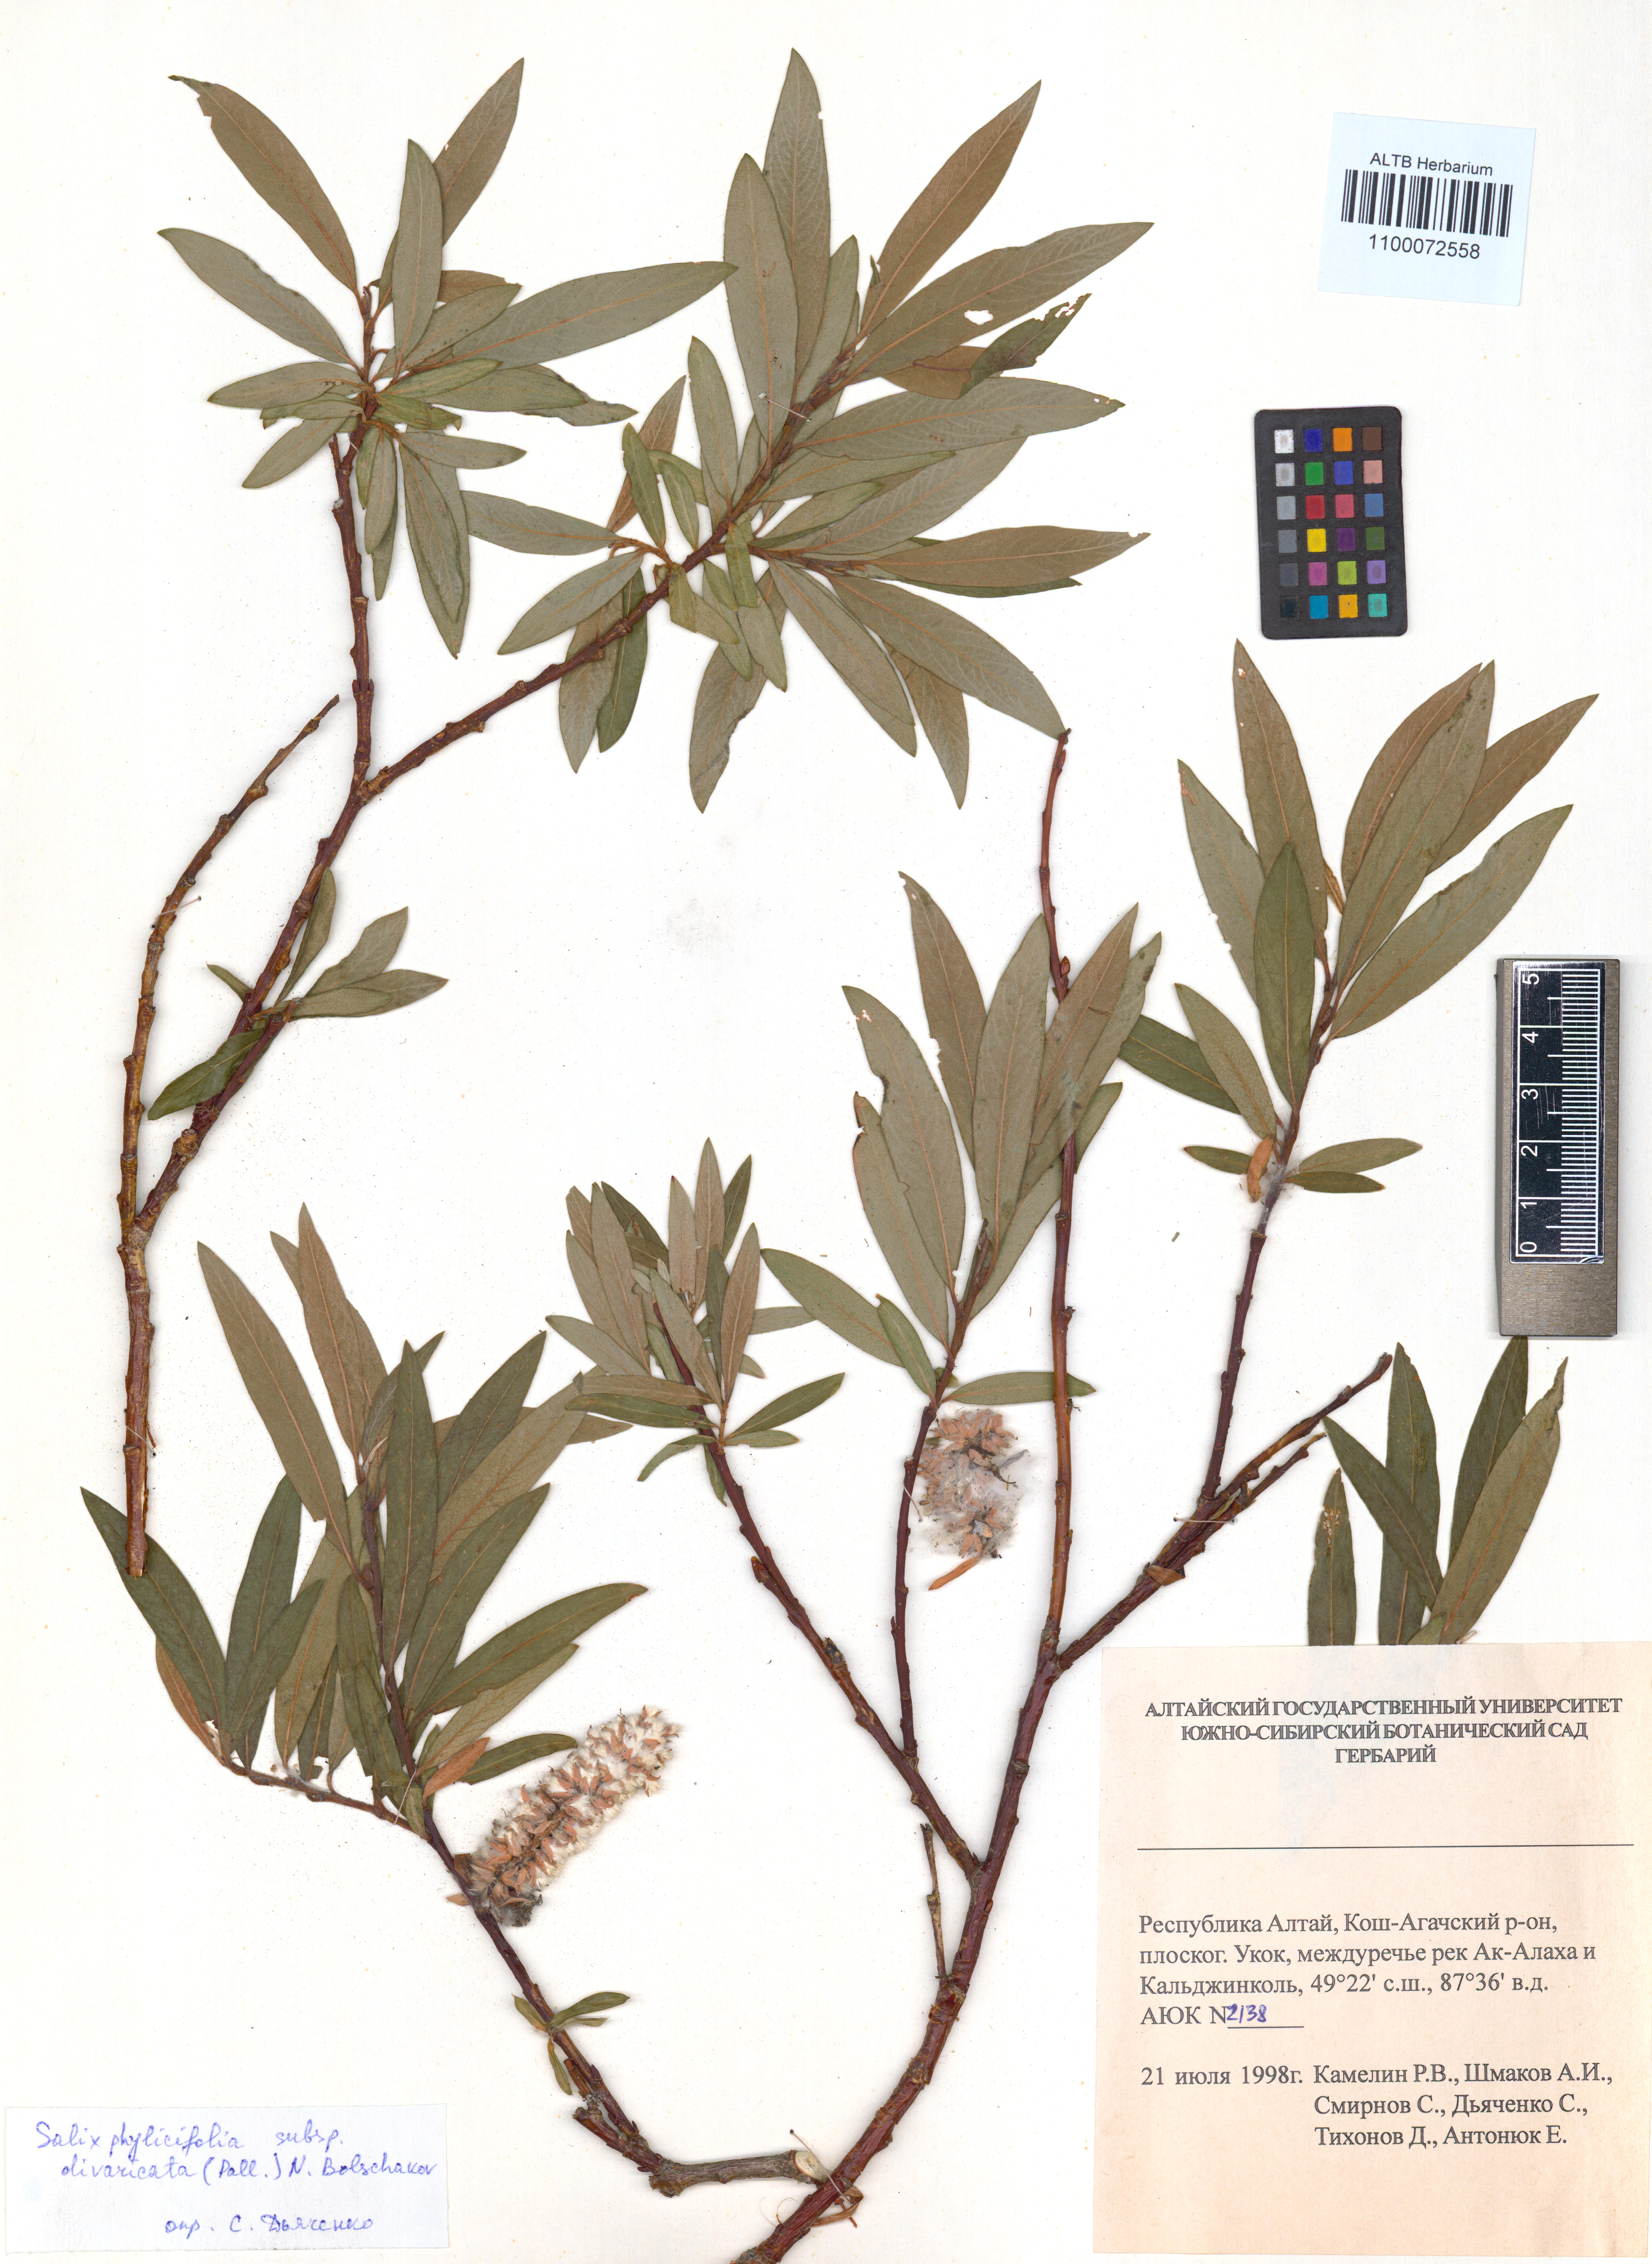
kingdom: Plantae
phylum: Tracheophyta
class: Magnoliopsida
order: Malpighiales
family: Salicaceae
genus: Salix
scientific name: Salix phylicifolia
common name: Tea-leaved willow
